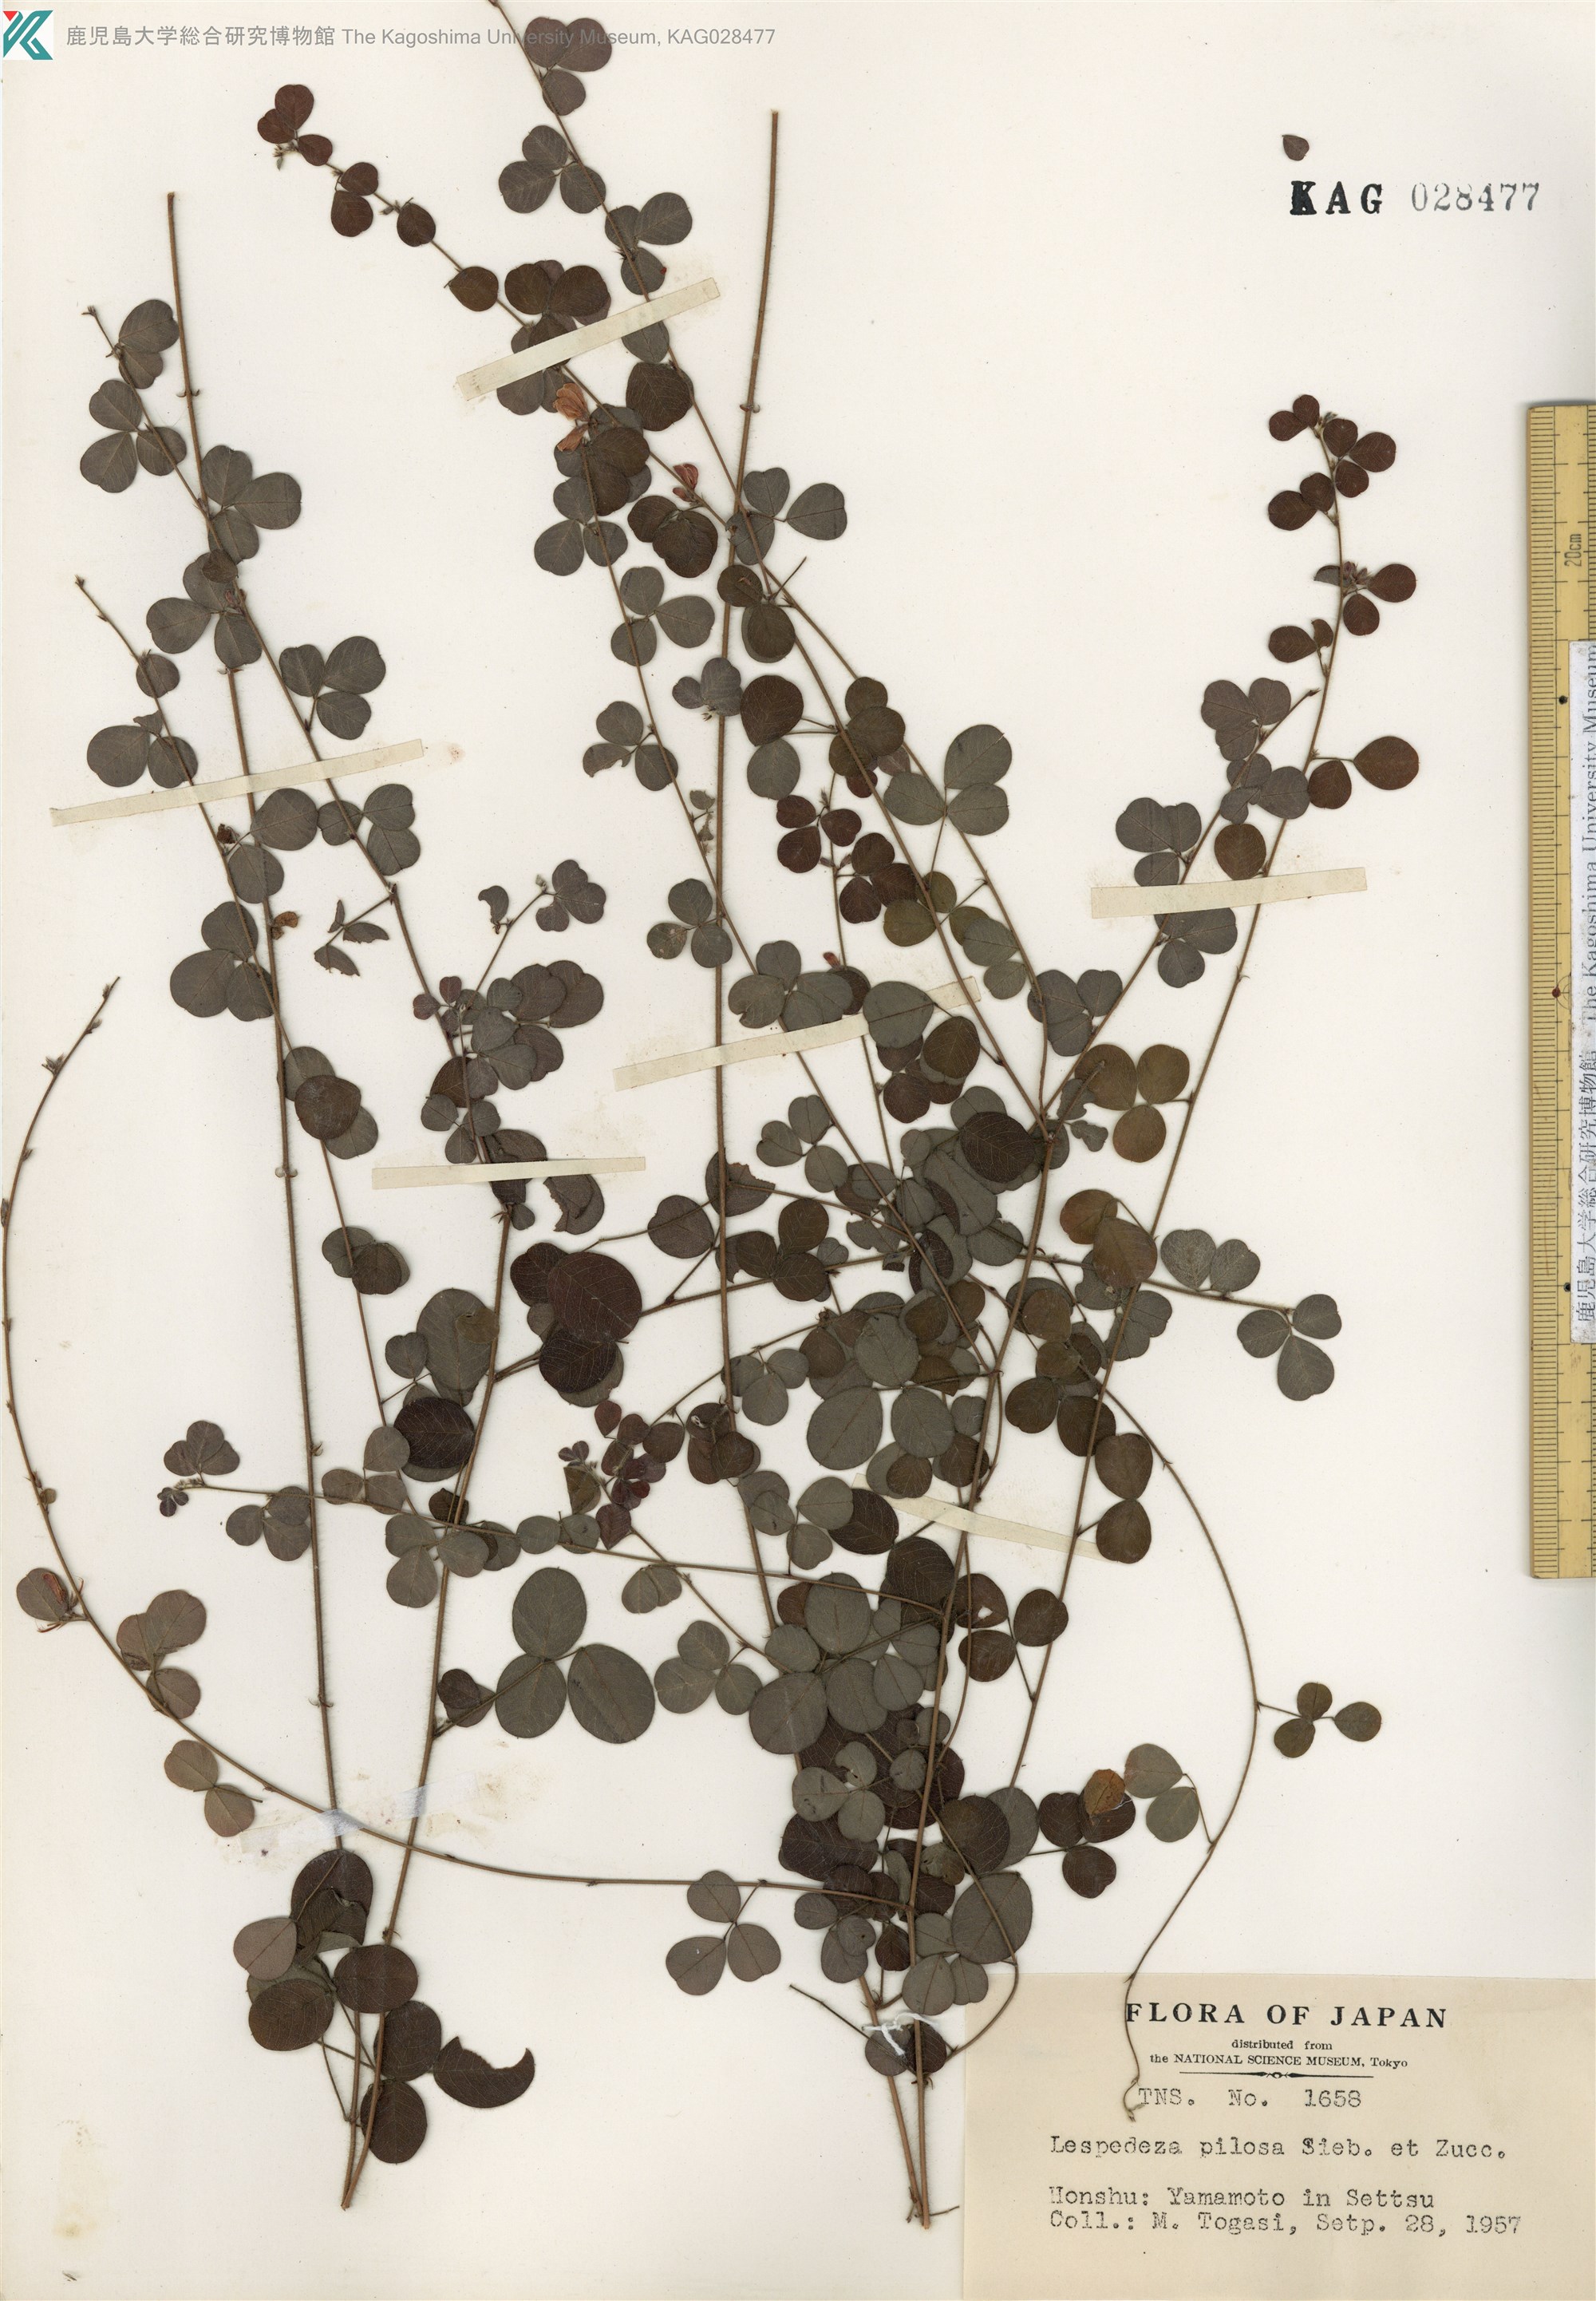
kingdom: Plantae
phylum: Tracheophyta
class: Magnoliopsida
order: Fabales
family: Fabaceae
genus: Lespedeza
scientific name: Lespedeza pilosa
